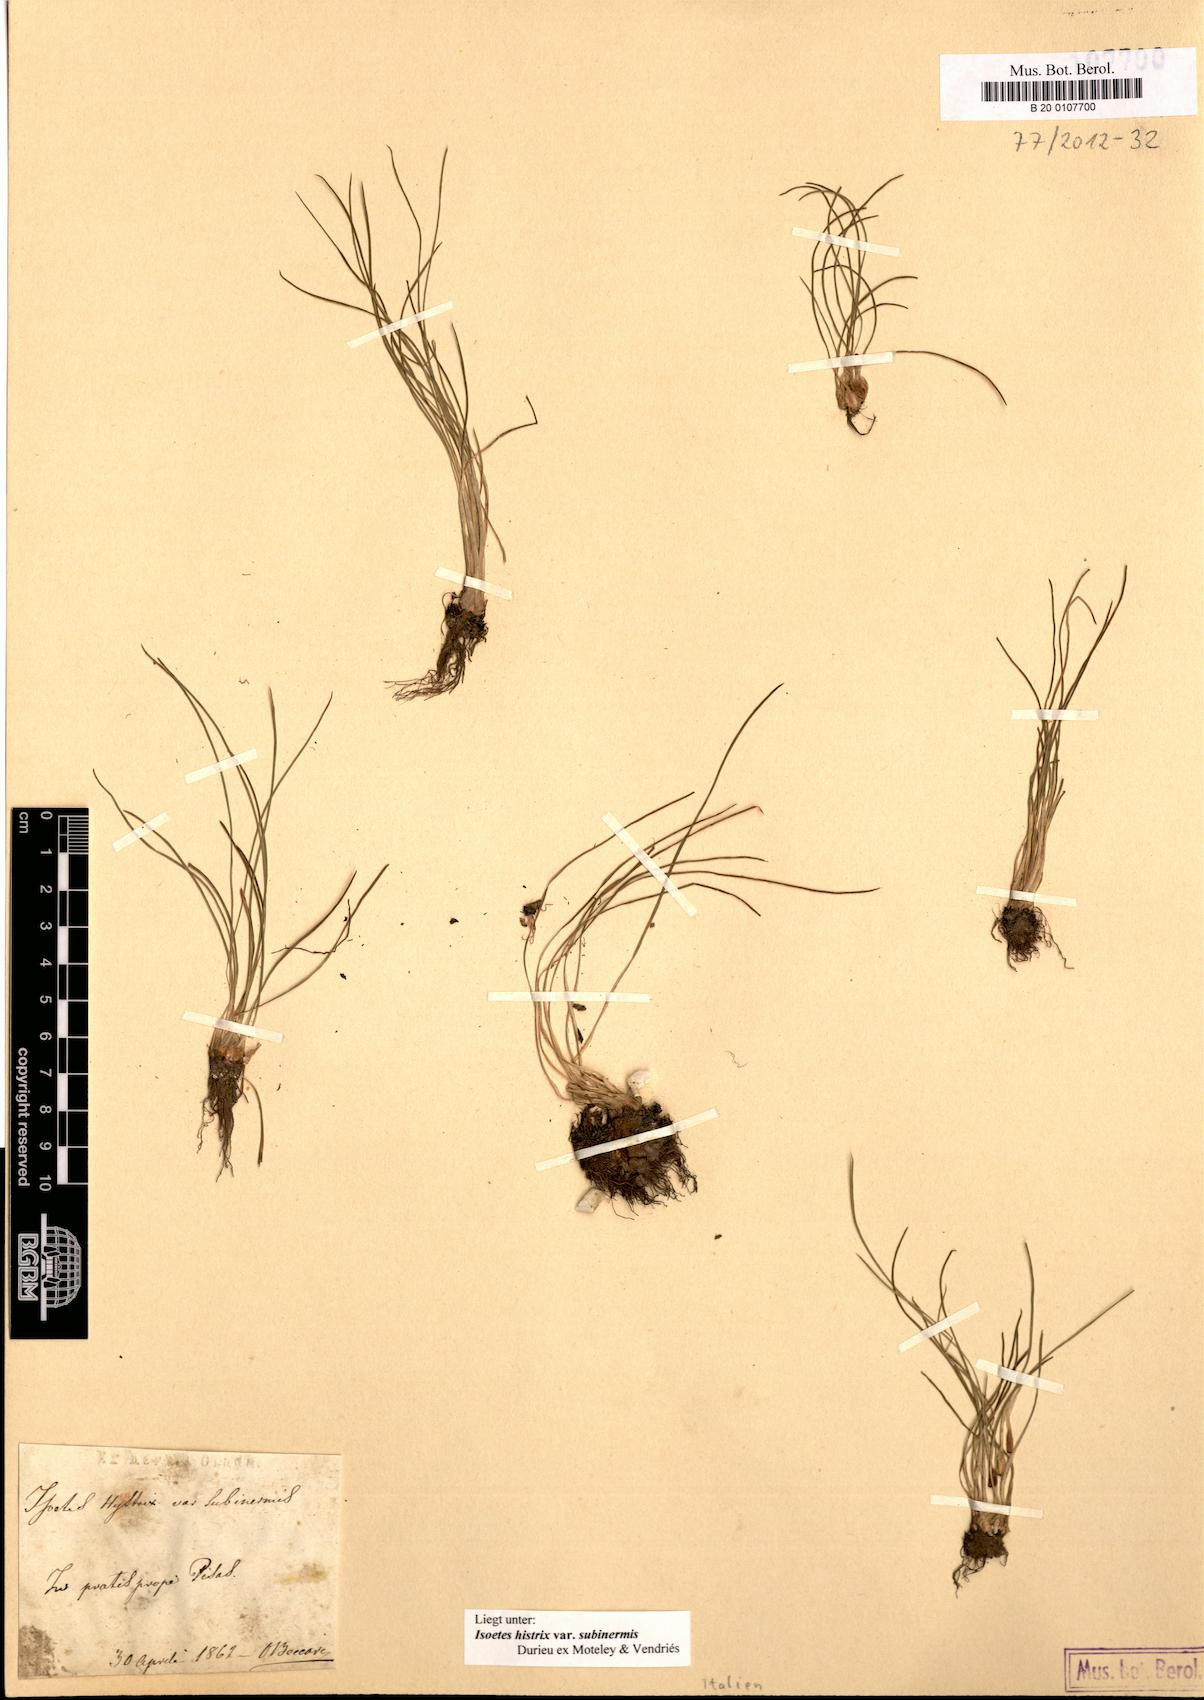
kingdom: Plantae
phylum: Tracheophyta
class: Lycopodiopsida
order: Isoetales
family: Isoetaceae
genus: Isoetes
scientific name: Isoetes gymnocarpa
